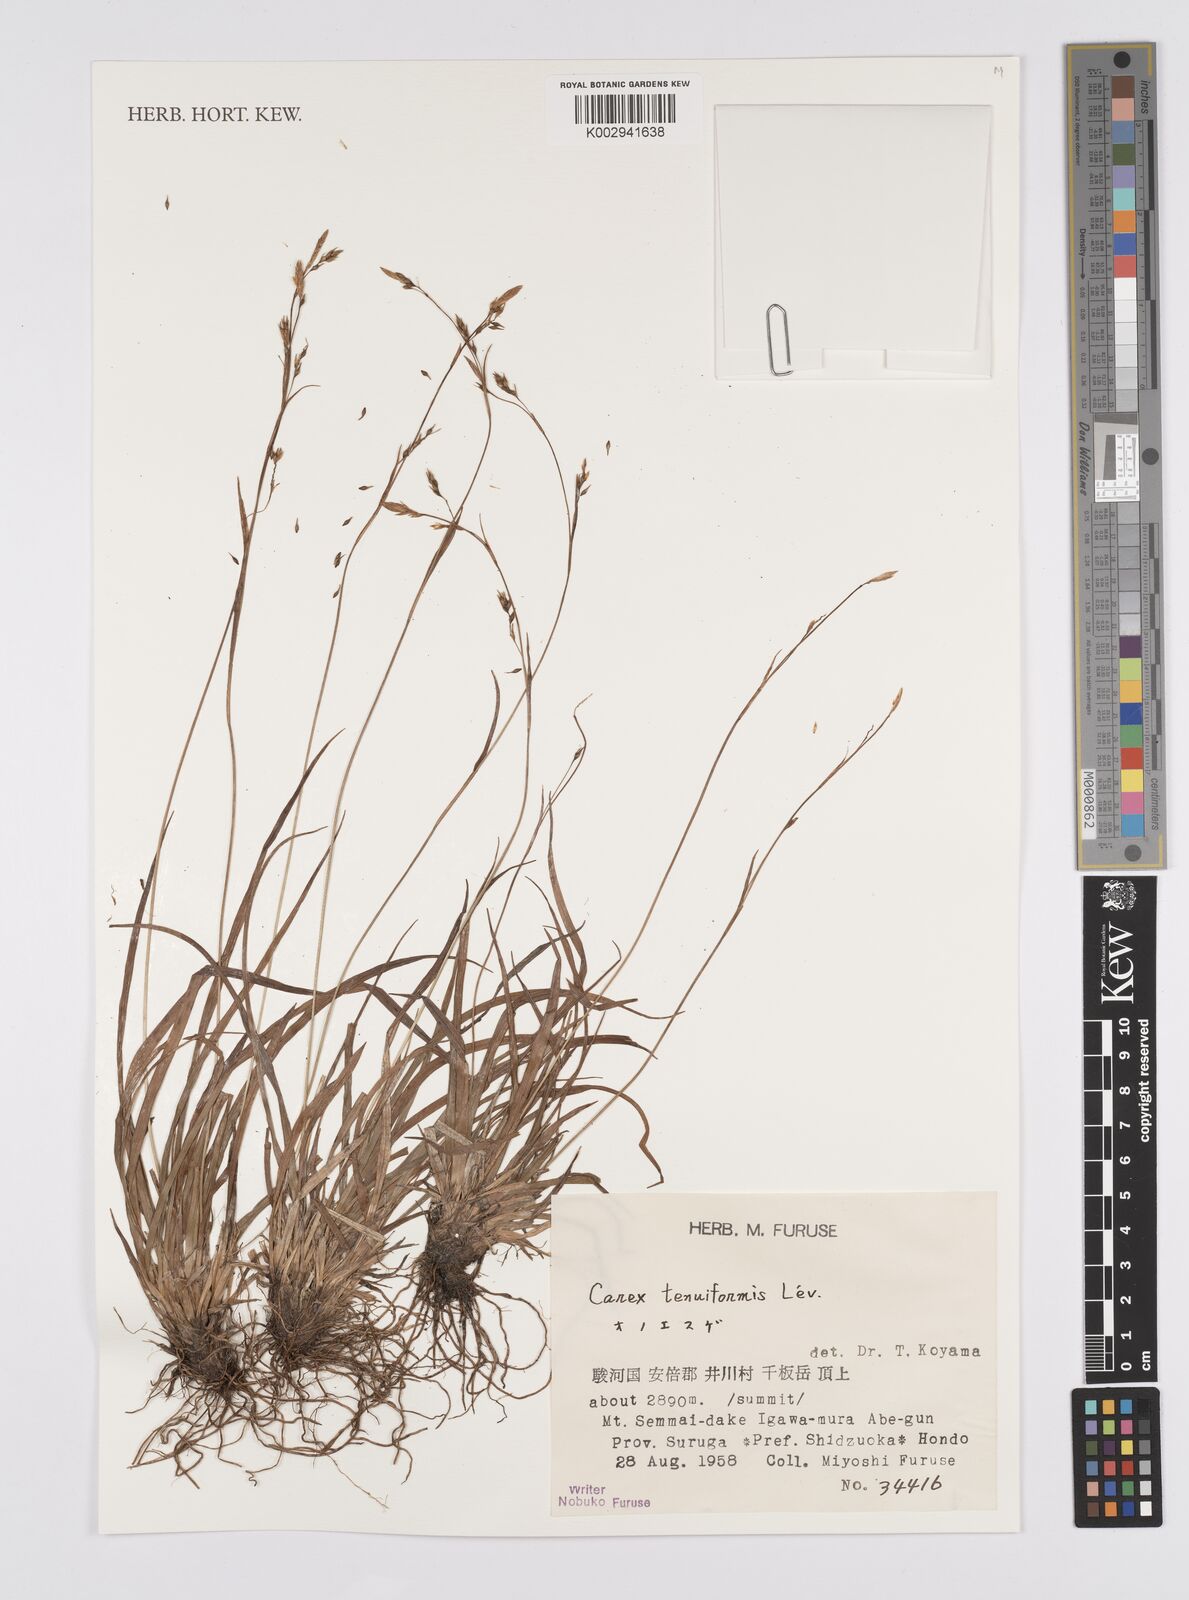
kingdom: Plantae
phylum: Tracheophyta
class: Liliopsida
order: Poales
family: Cyperaceae
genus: Carex
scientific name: Carex tenuiformis
